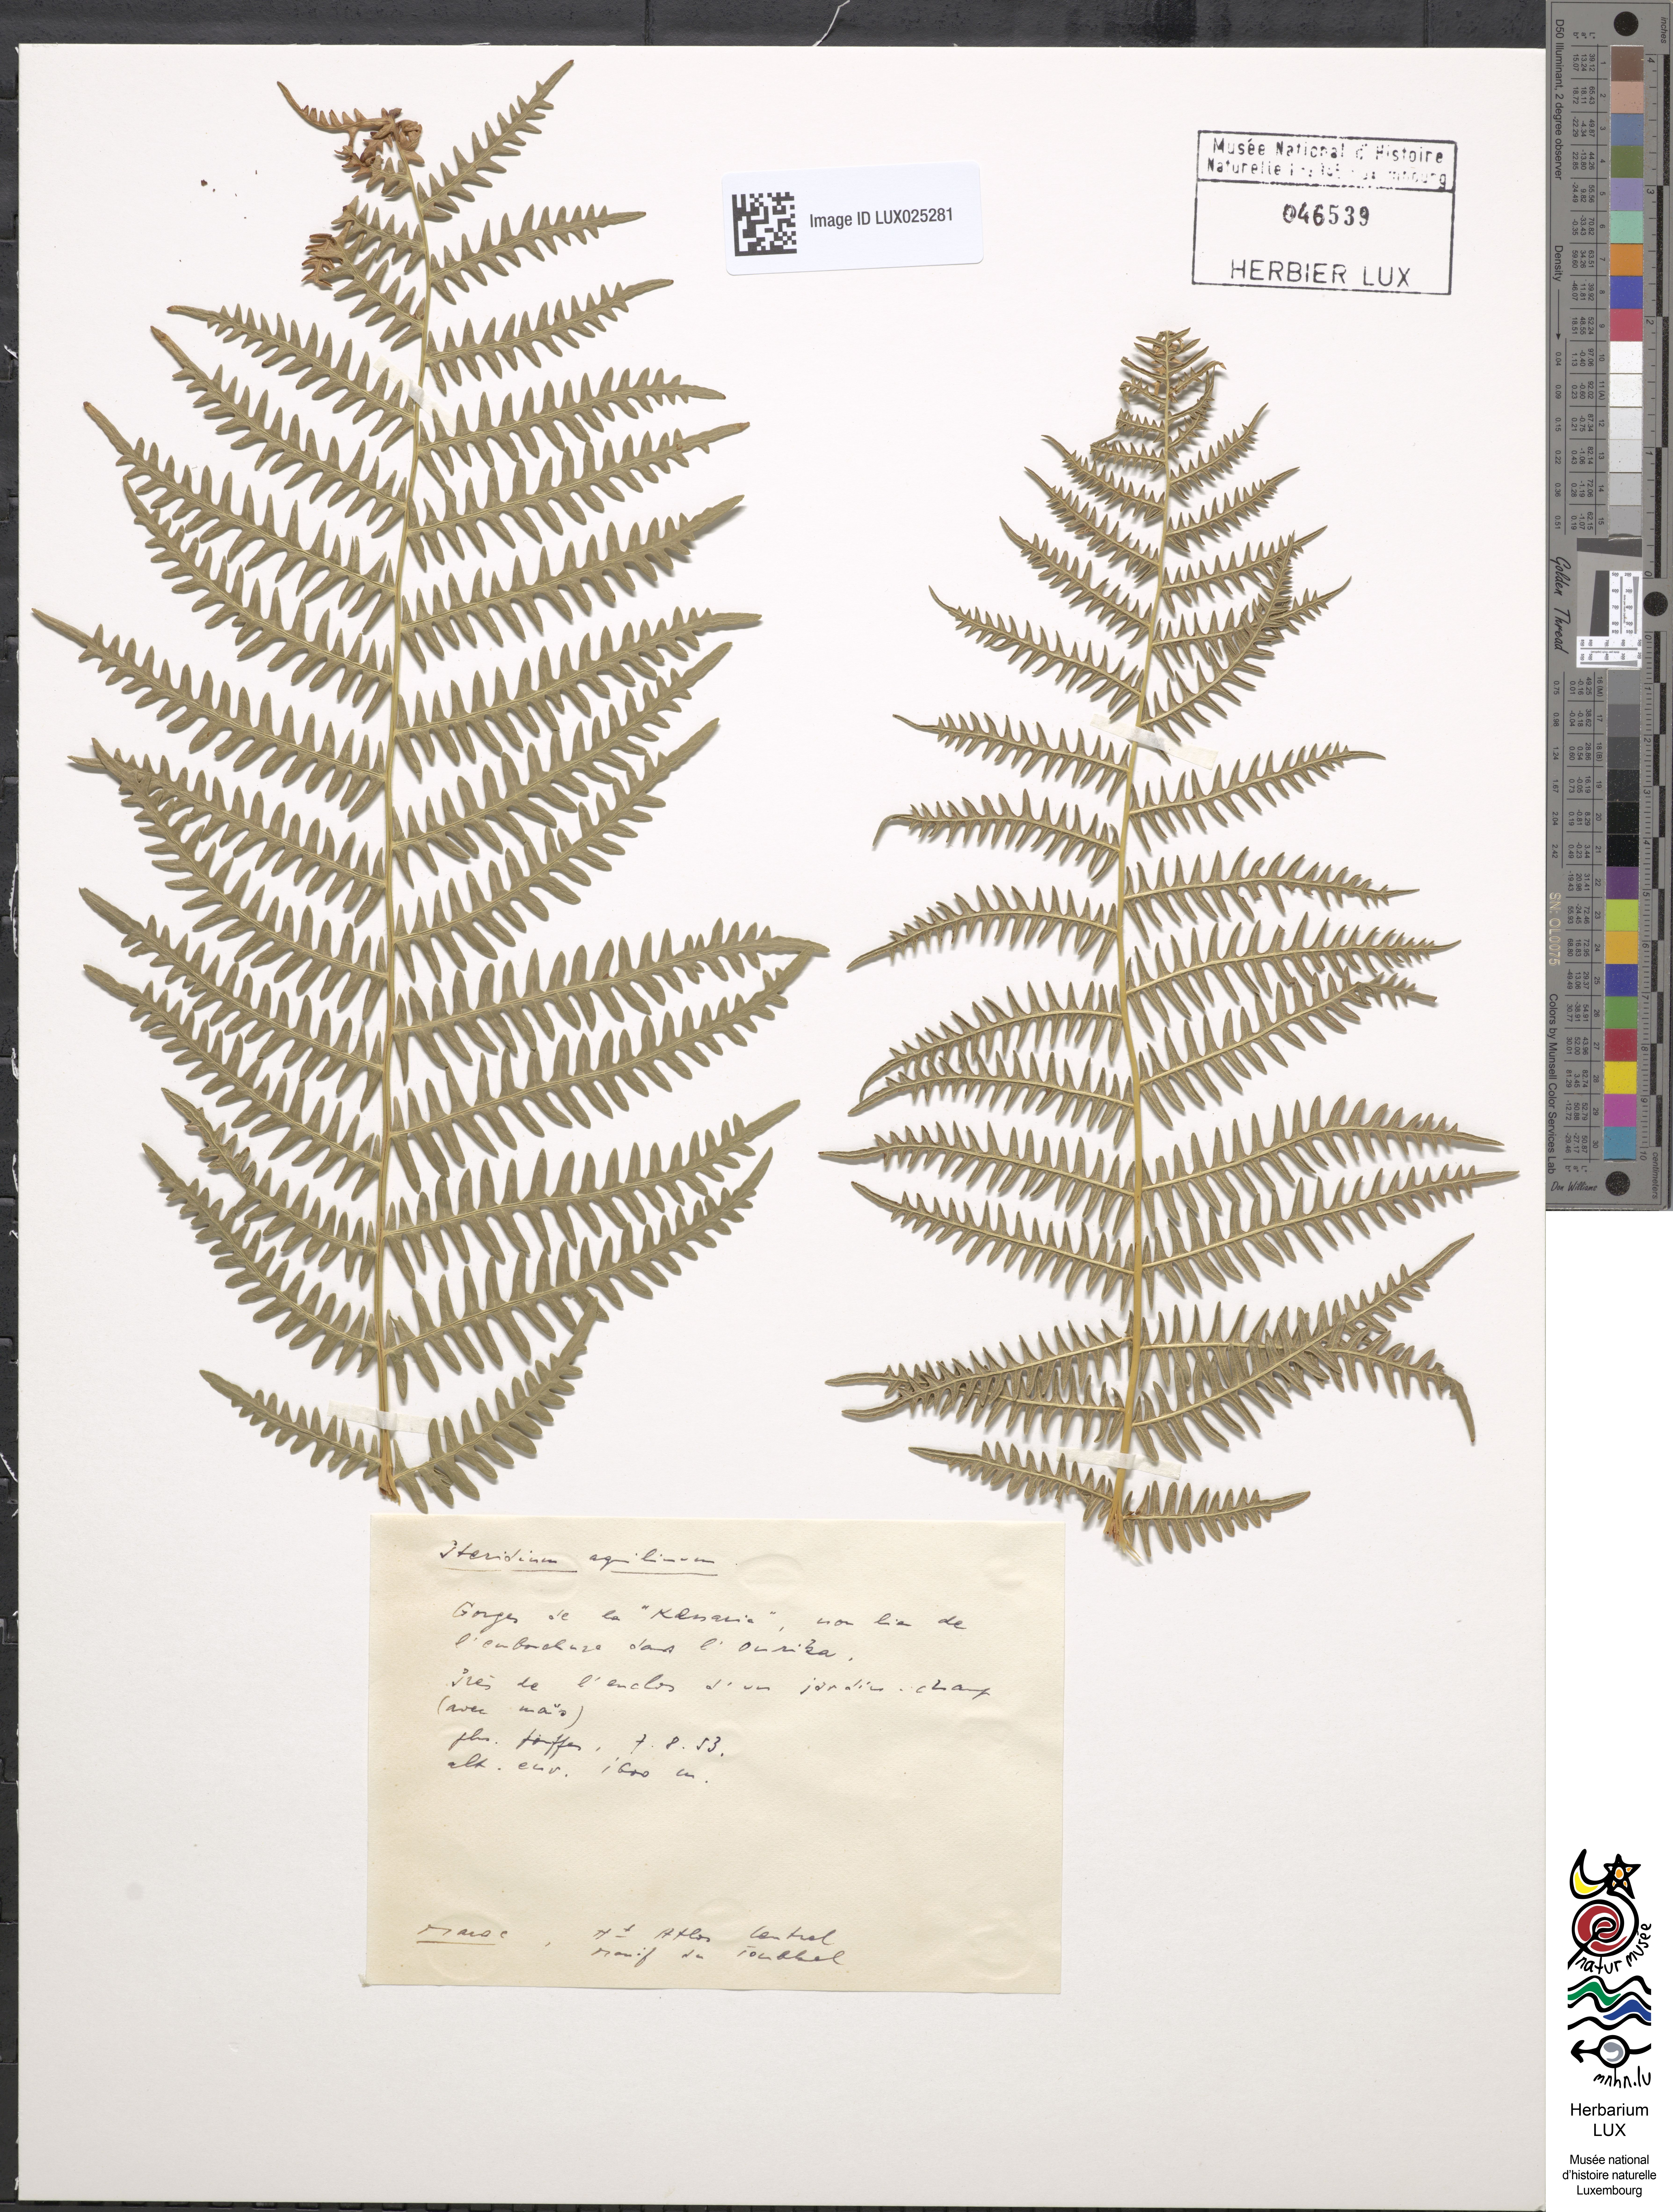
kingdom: Plantae
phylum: Tracheophyta
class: Polypodiopsida
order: Polypodiales
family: Dennstaedtiaceae
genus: Pteridium
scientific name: Pteridium aquilinum
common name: Bracken
